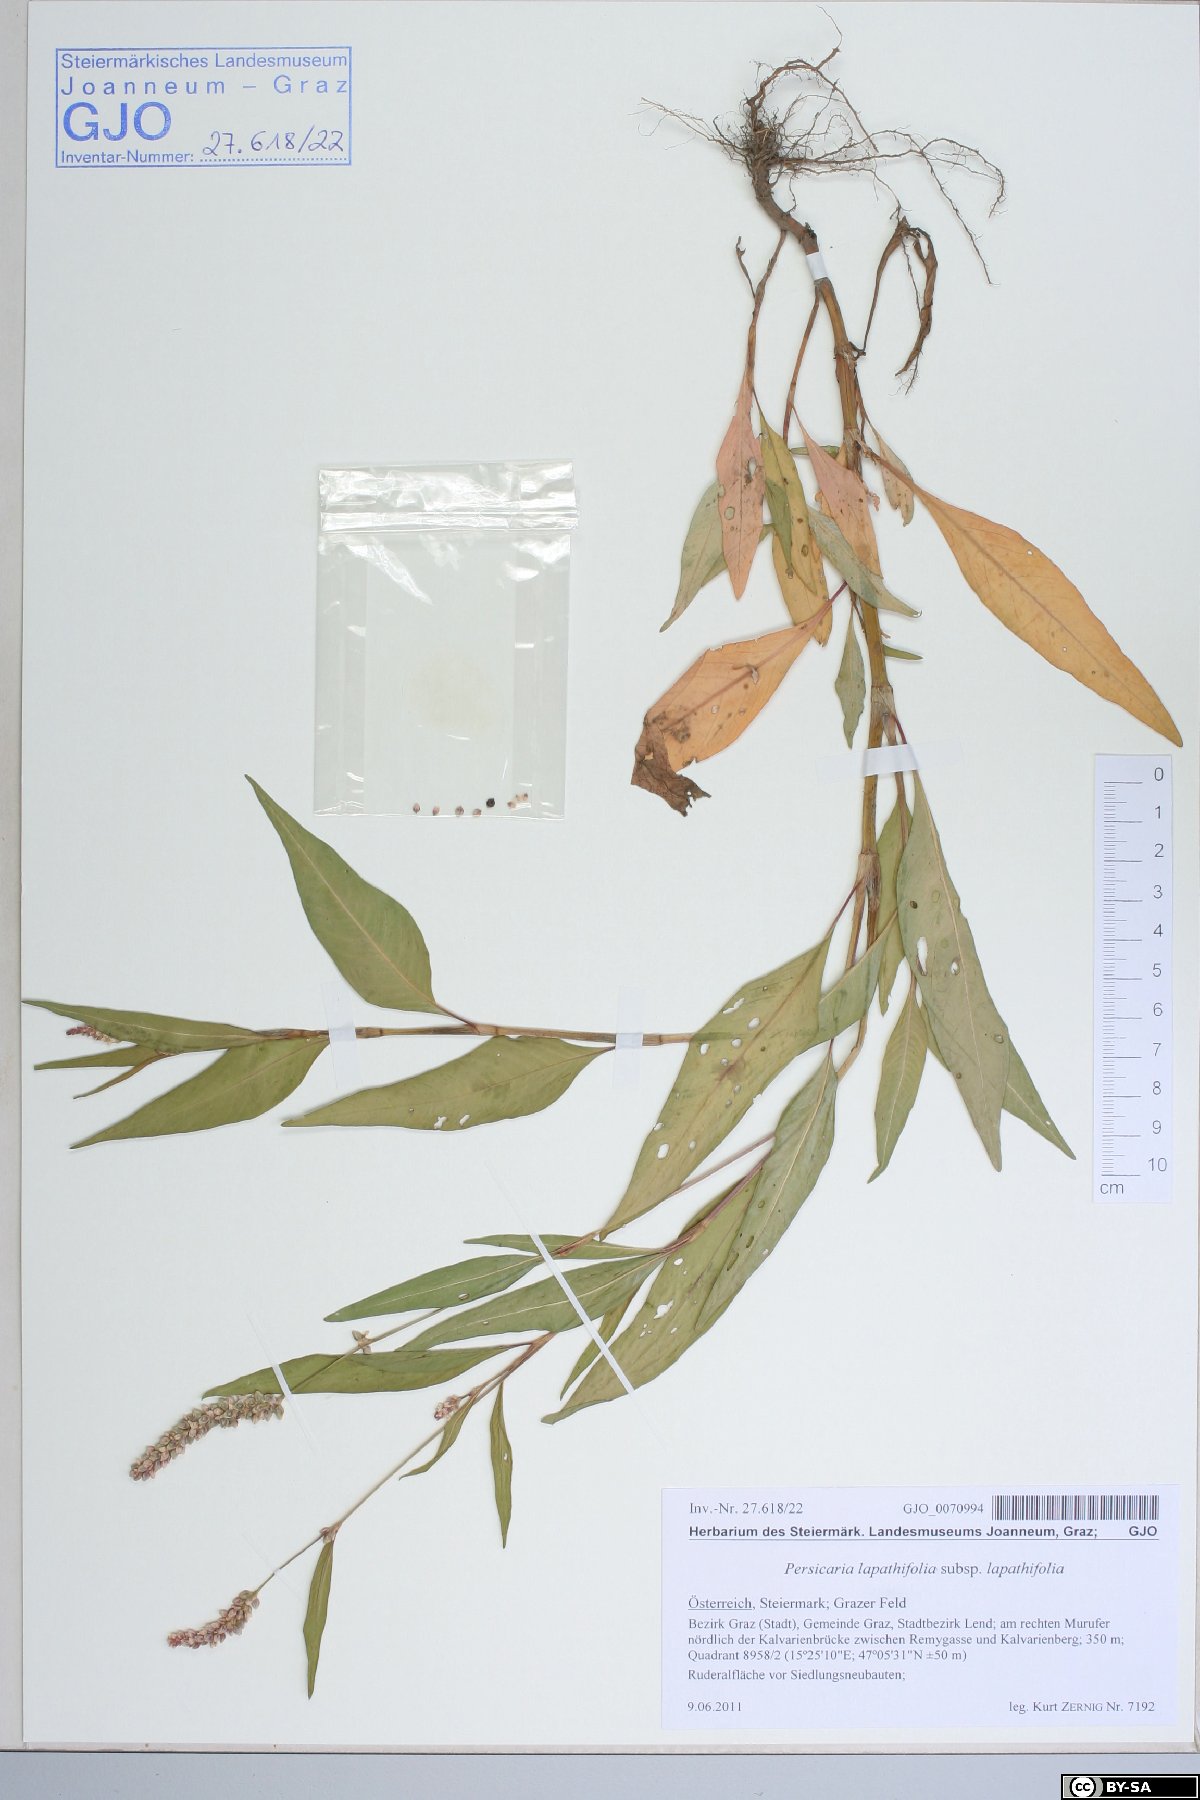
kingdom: Plantae
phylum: Tracheophyta
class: Magnoliopsida
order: Caryophyllales
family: Polygonaceae
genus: Persicaria
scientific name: Persicaria lapathifolia
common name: Curlytop knotweed
